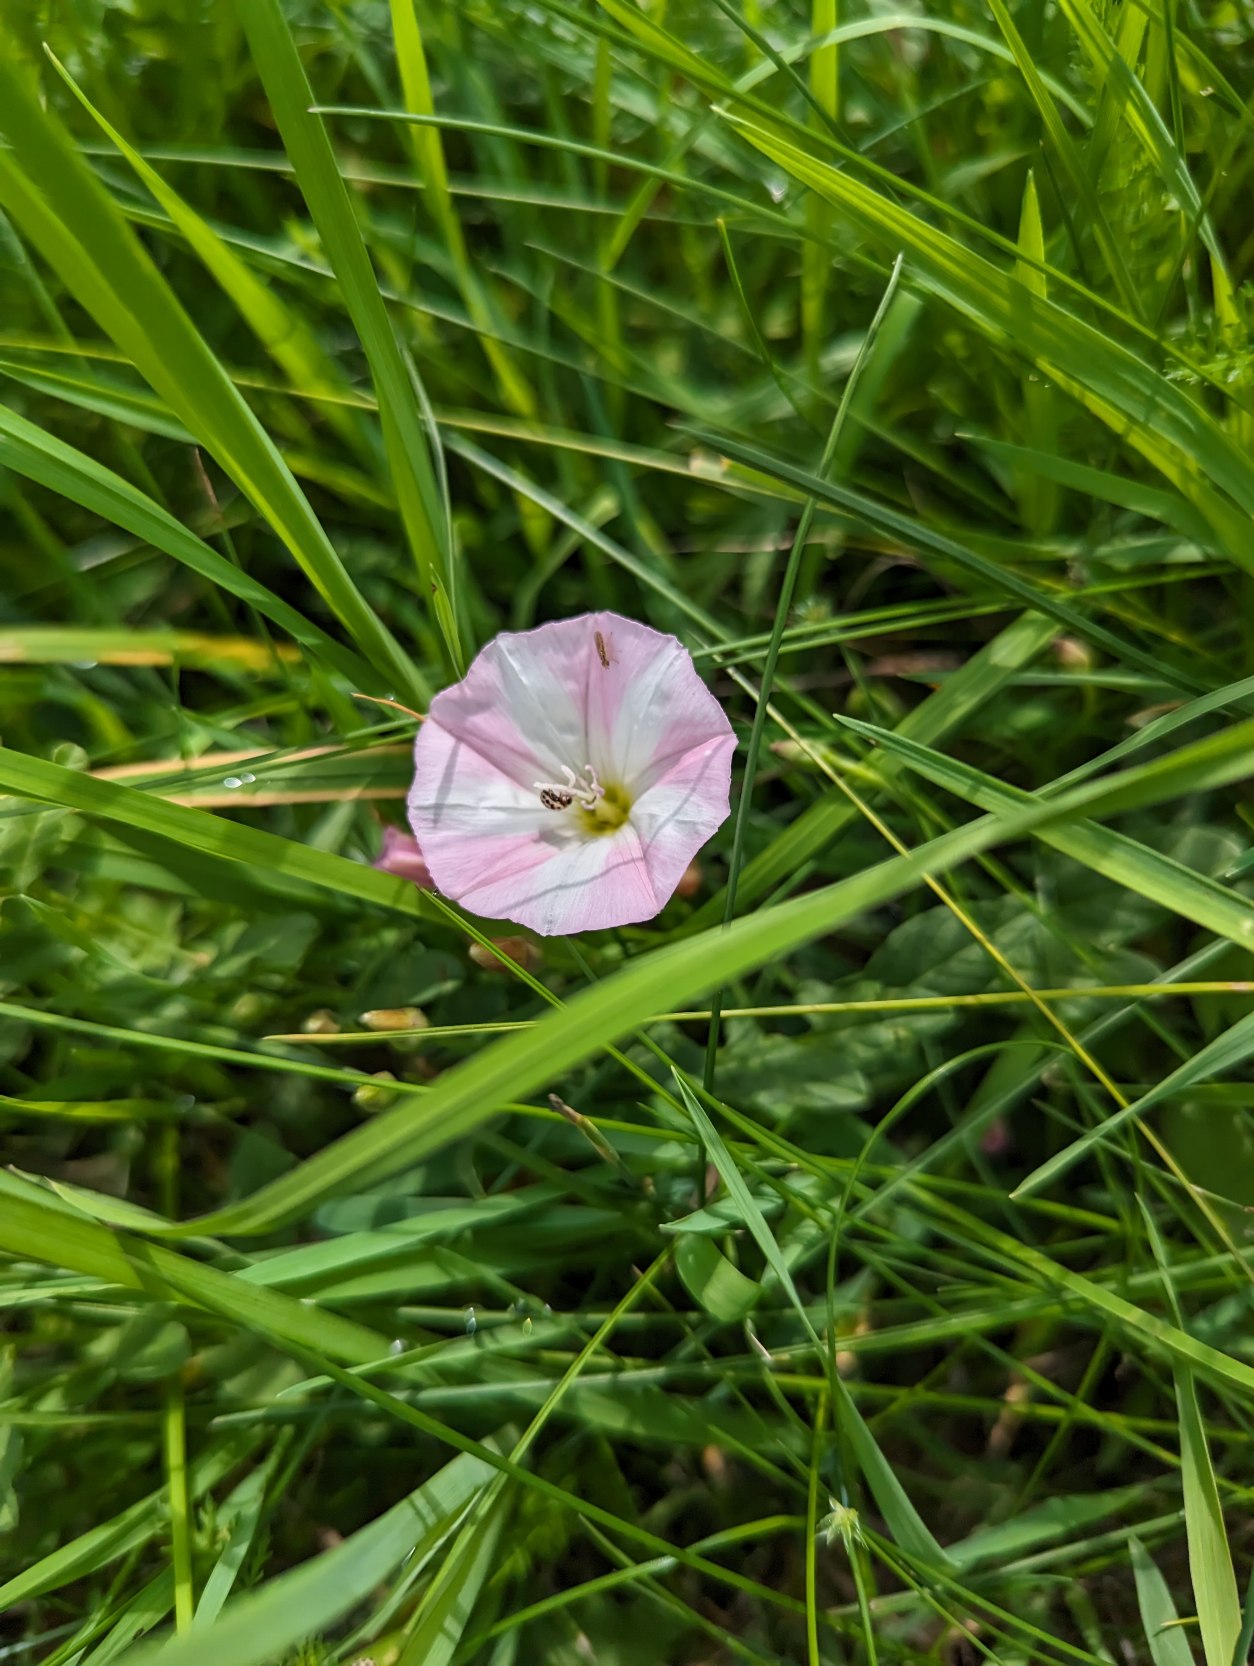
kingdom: Plantae
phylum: Tracheophyta
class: Magnoliopsida
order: Solanales
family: Convolvulaceae
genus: Convolvulus
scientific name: Convolvulus arvensis
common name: Ager-snerle
